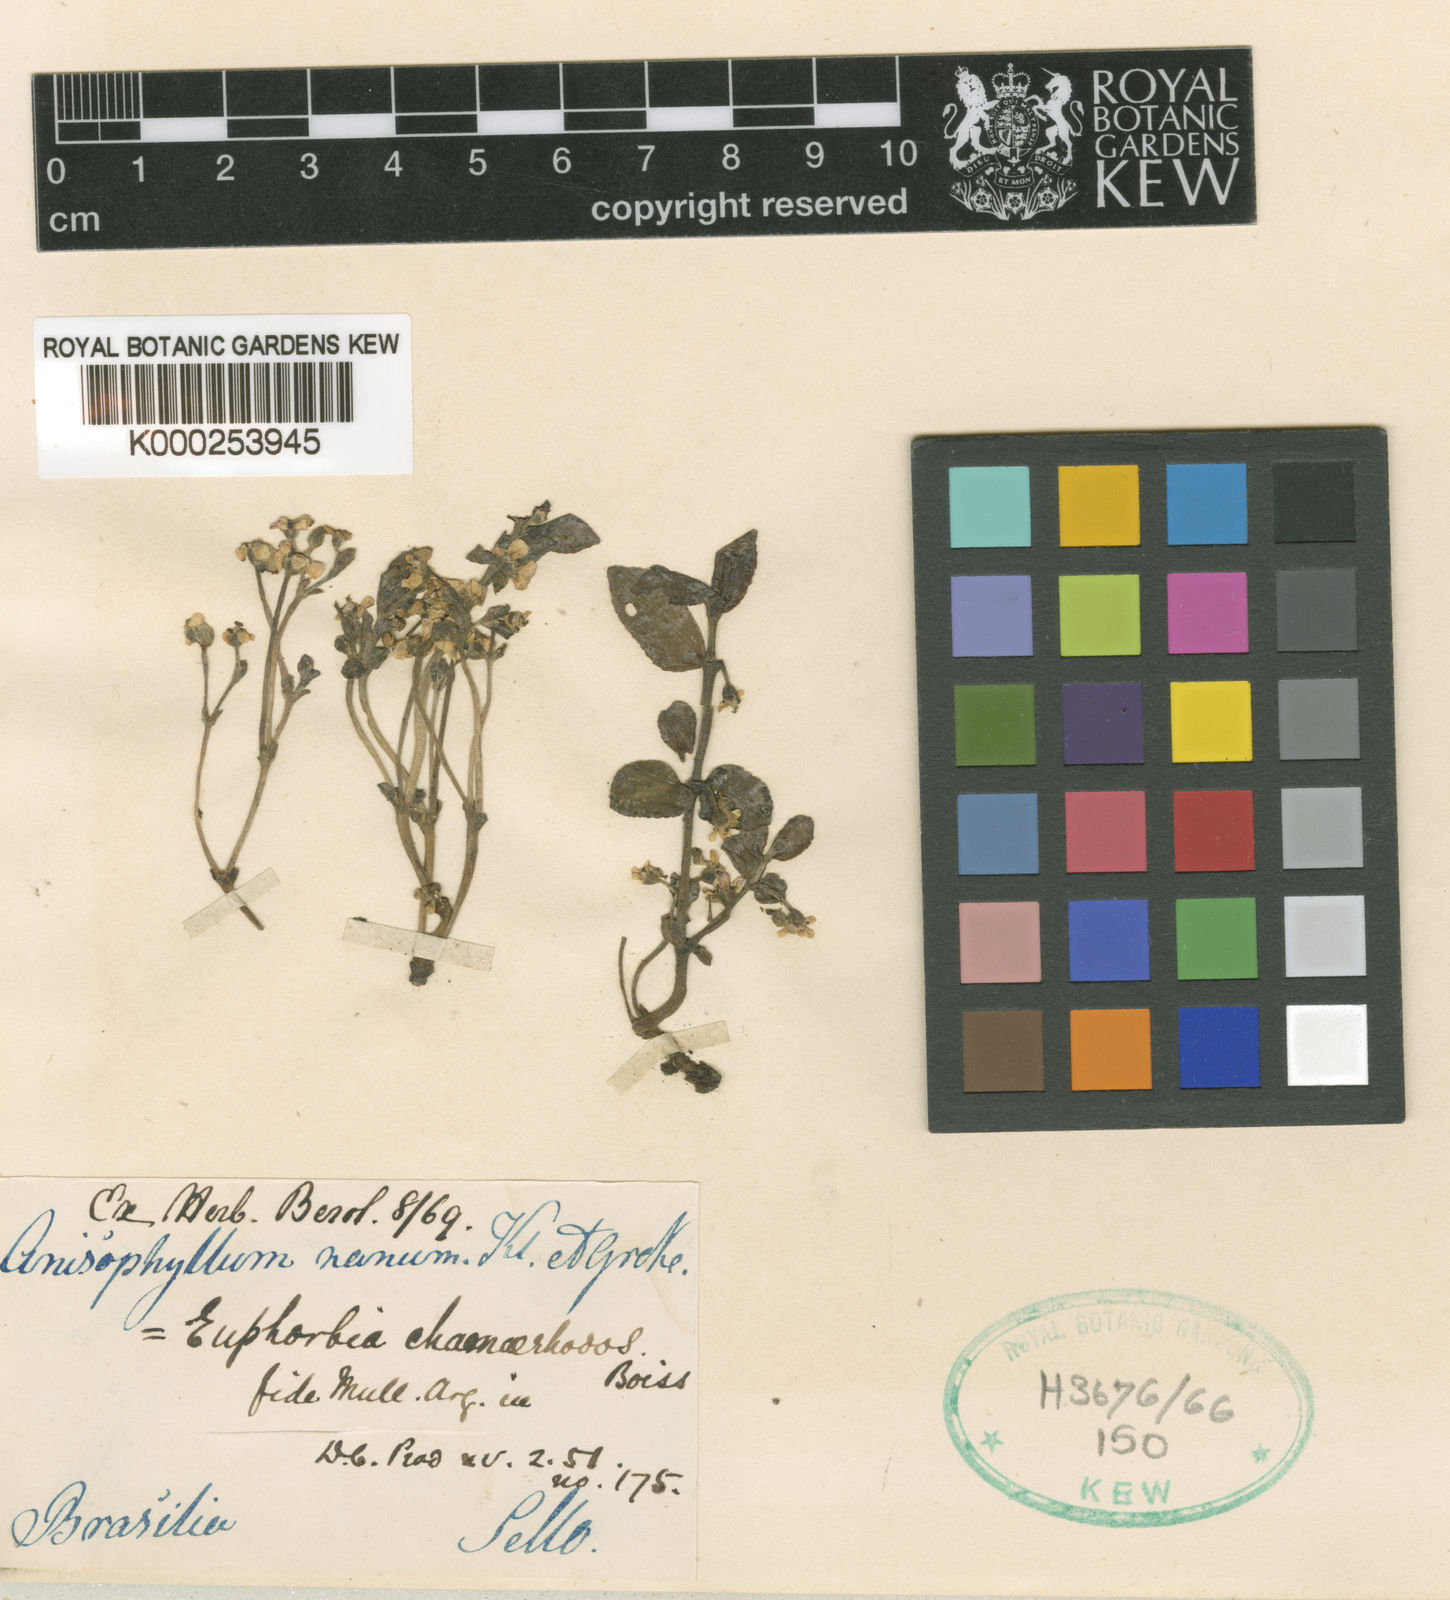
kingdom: Plantae
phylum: Tracheophyta
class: Magnoliopsida
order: Malpighiales
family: Euphorbiaceae
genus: Euphorbia
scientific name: Euphorbia chamaerrhodos
